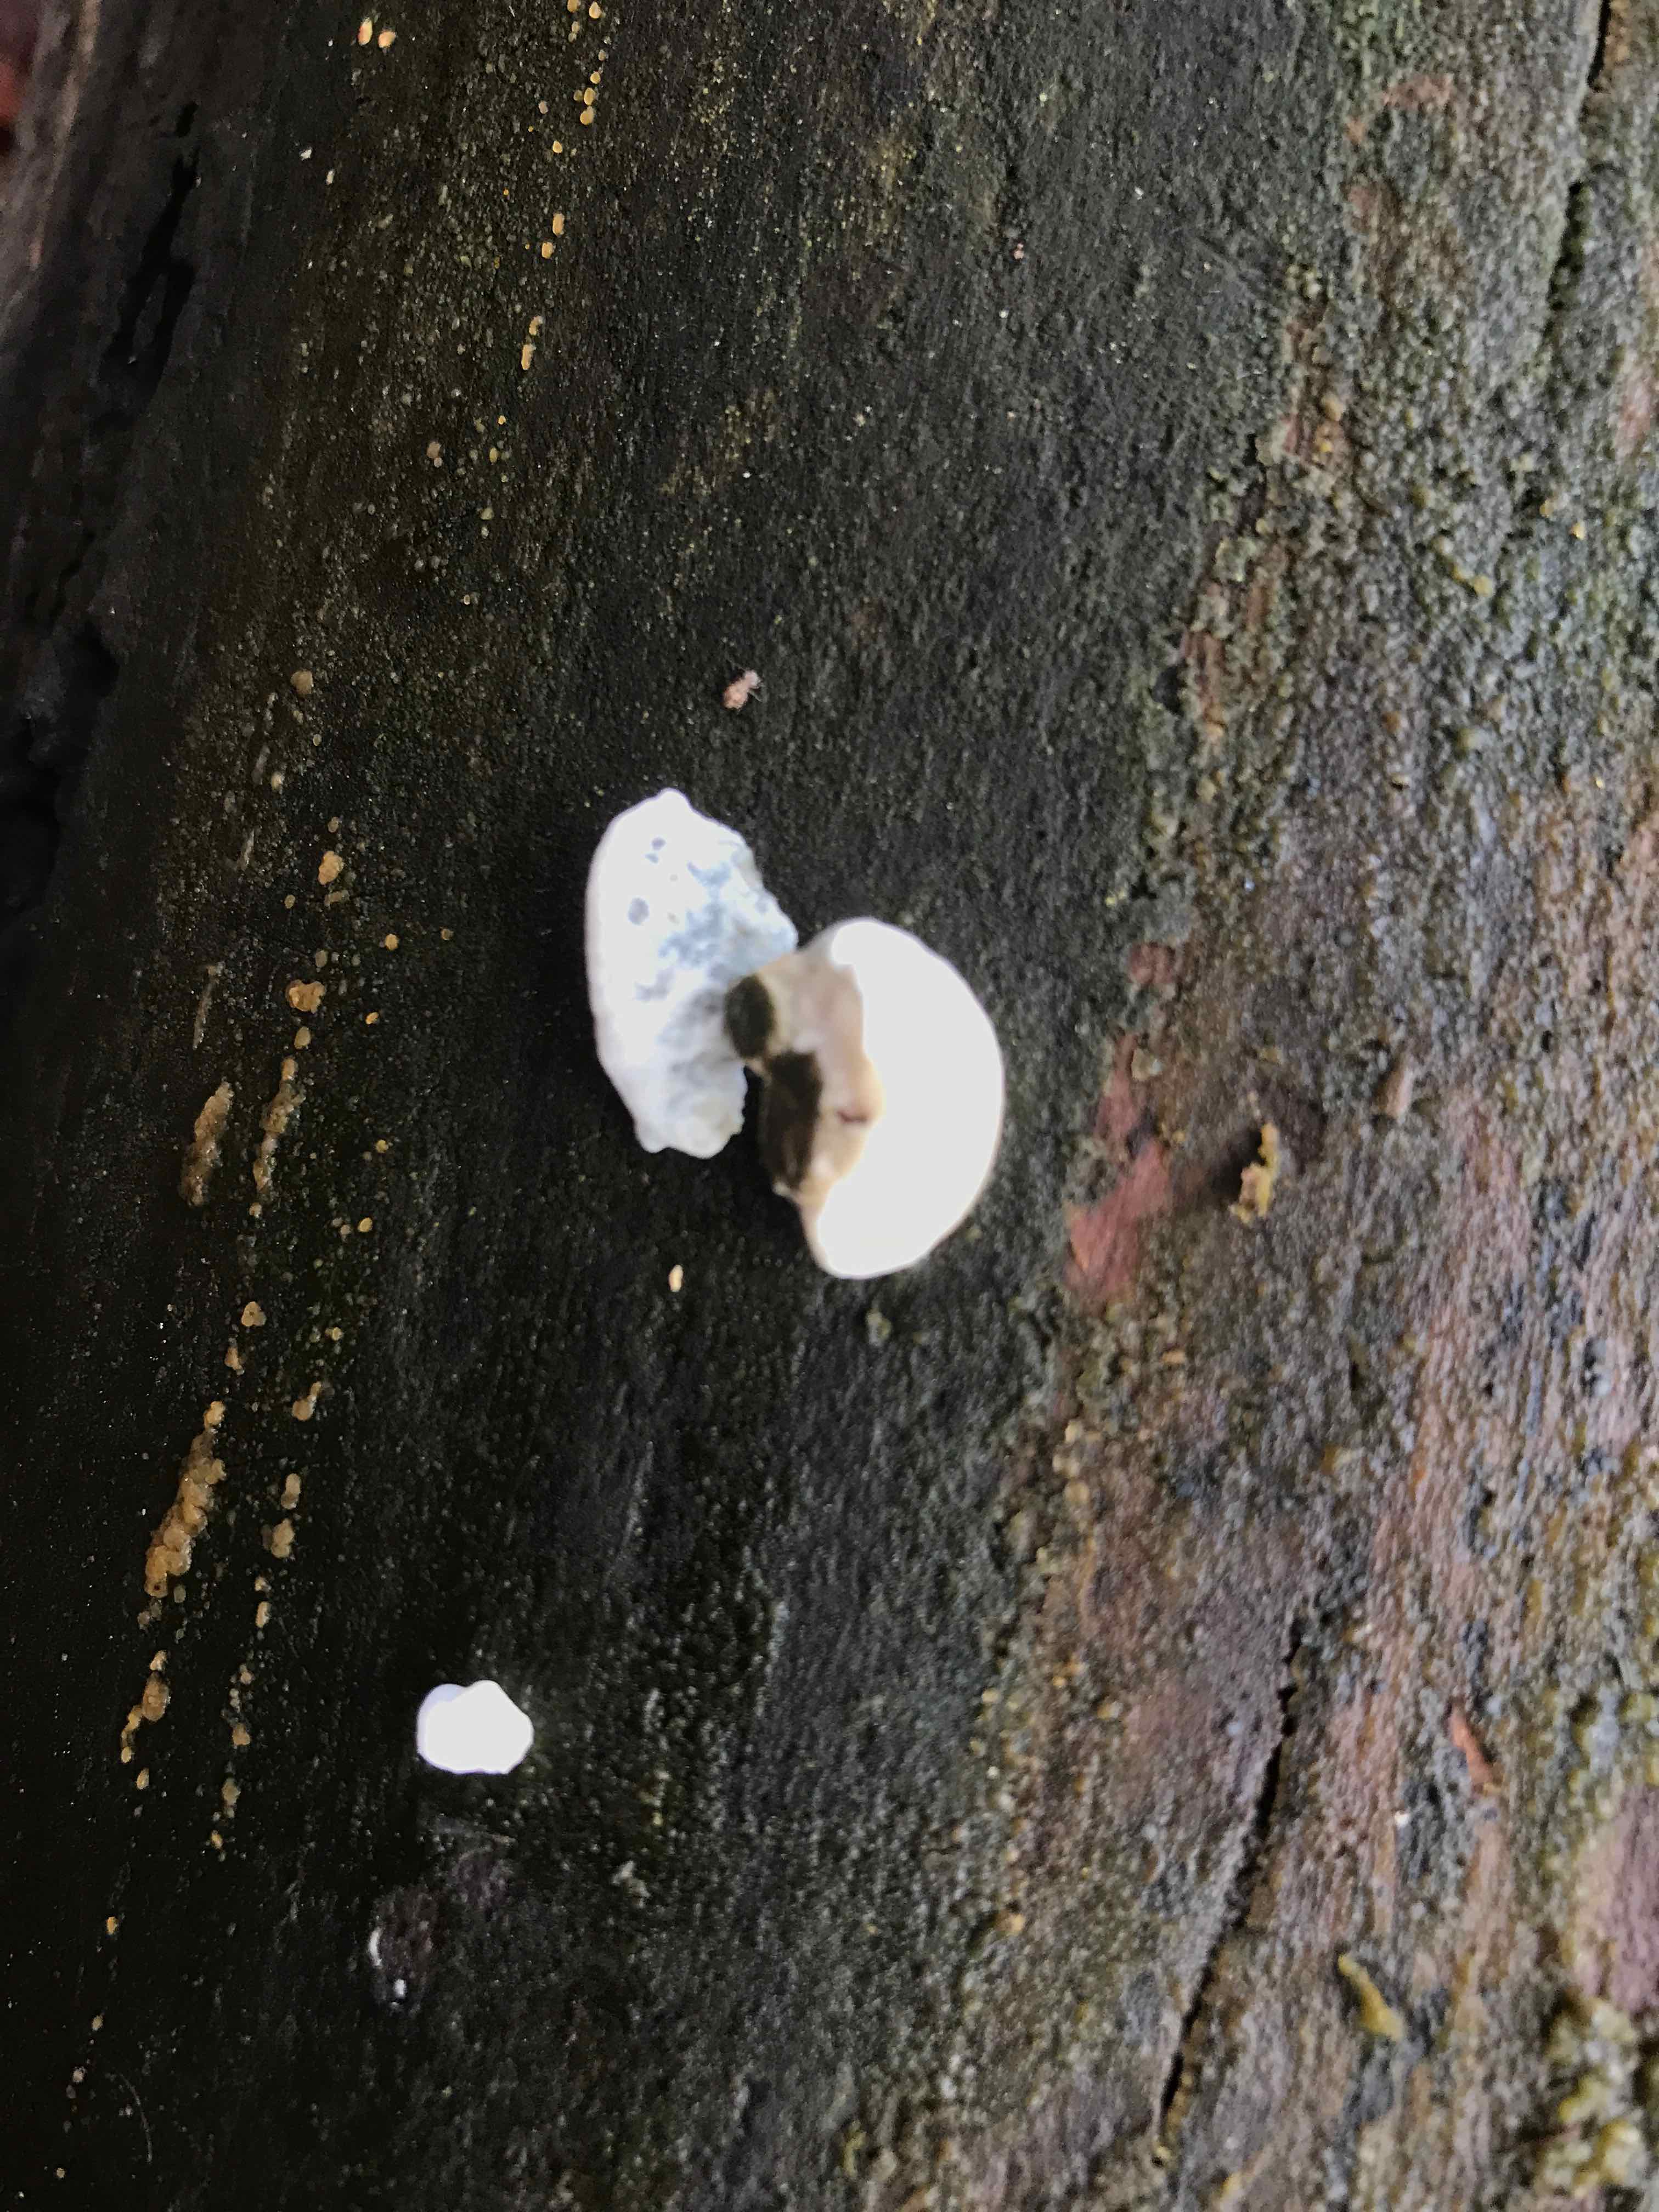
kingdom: Fungi
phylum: Basidiomycota
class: Agaricomycetes
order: Polyporales
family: Polyporaceae
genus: Cyanosporus
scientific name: Cyanosporus alni
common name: blegblå kødporesvamp
